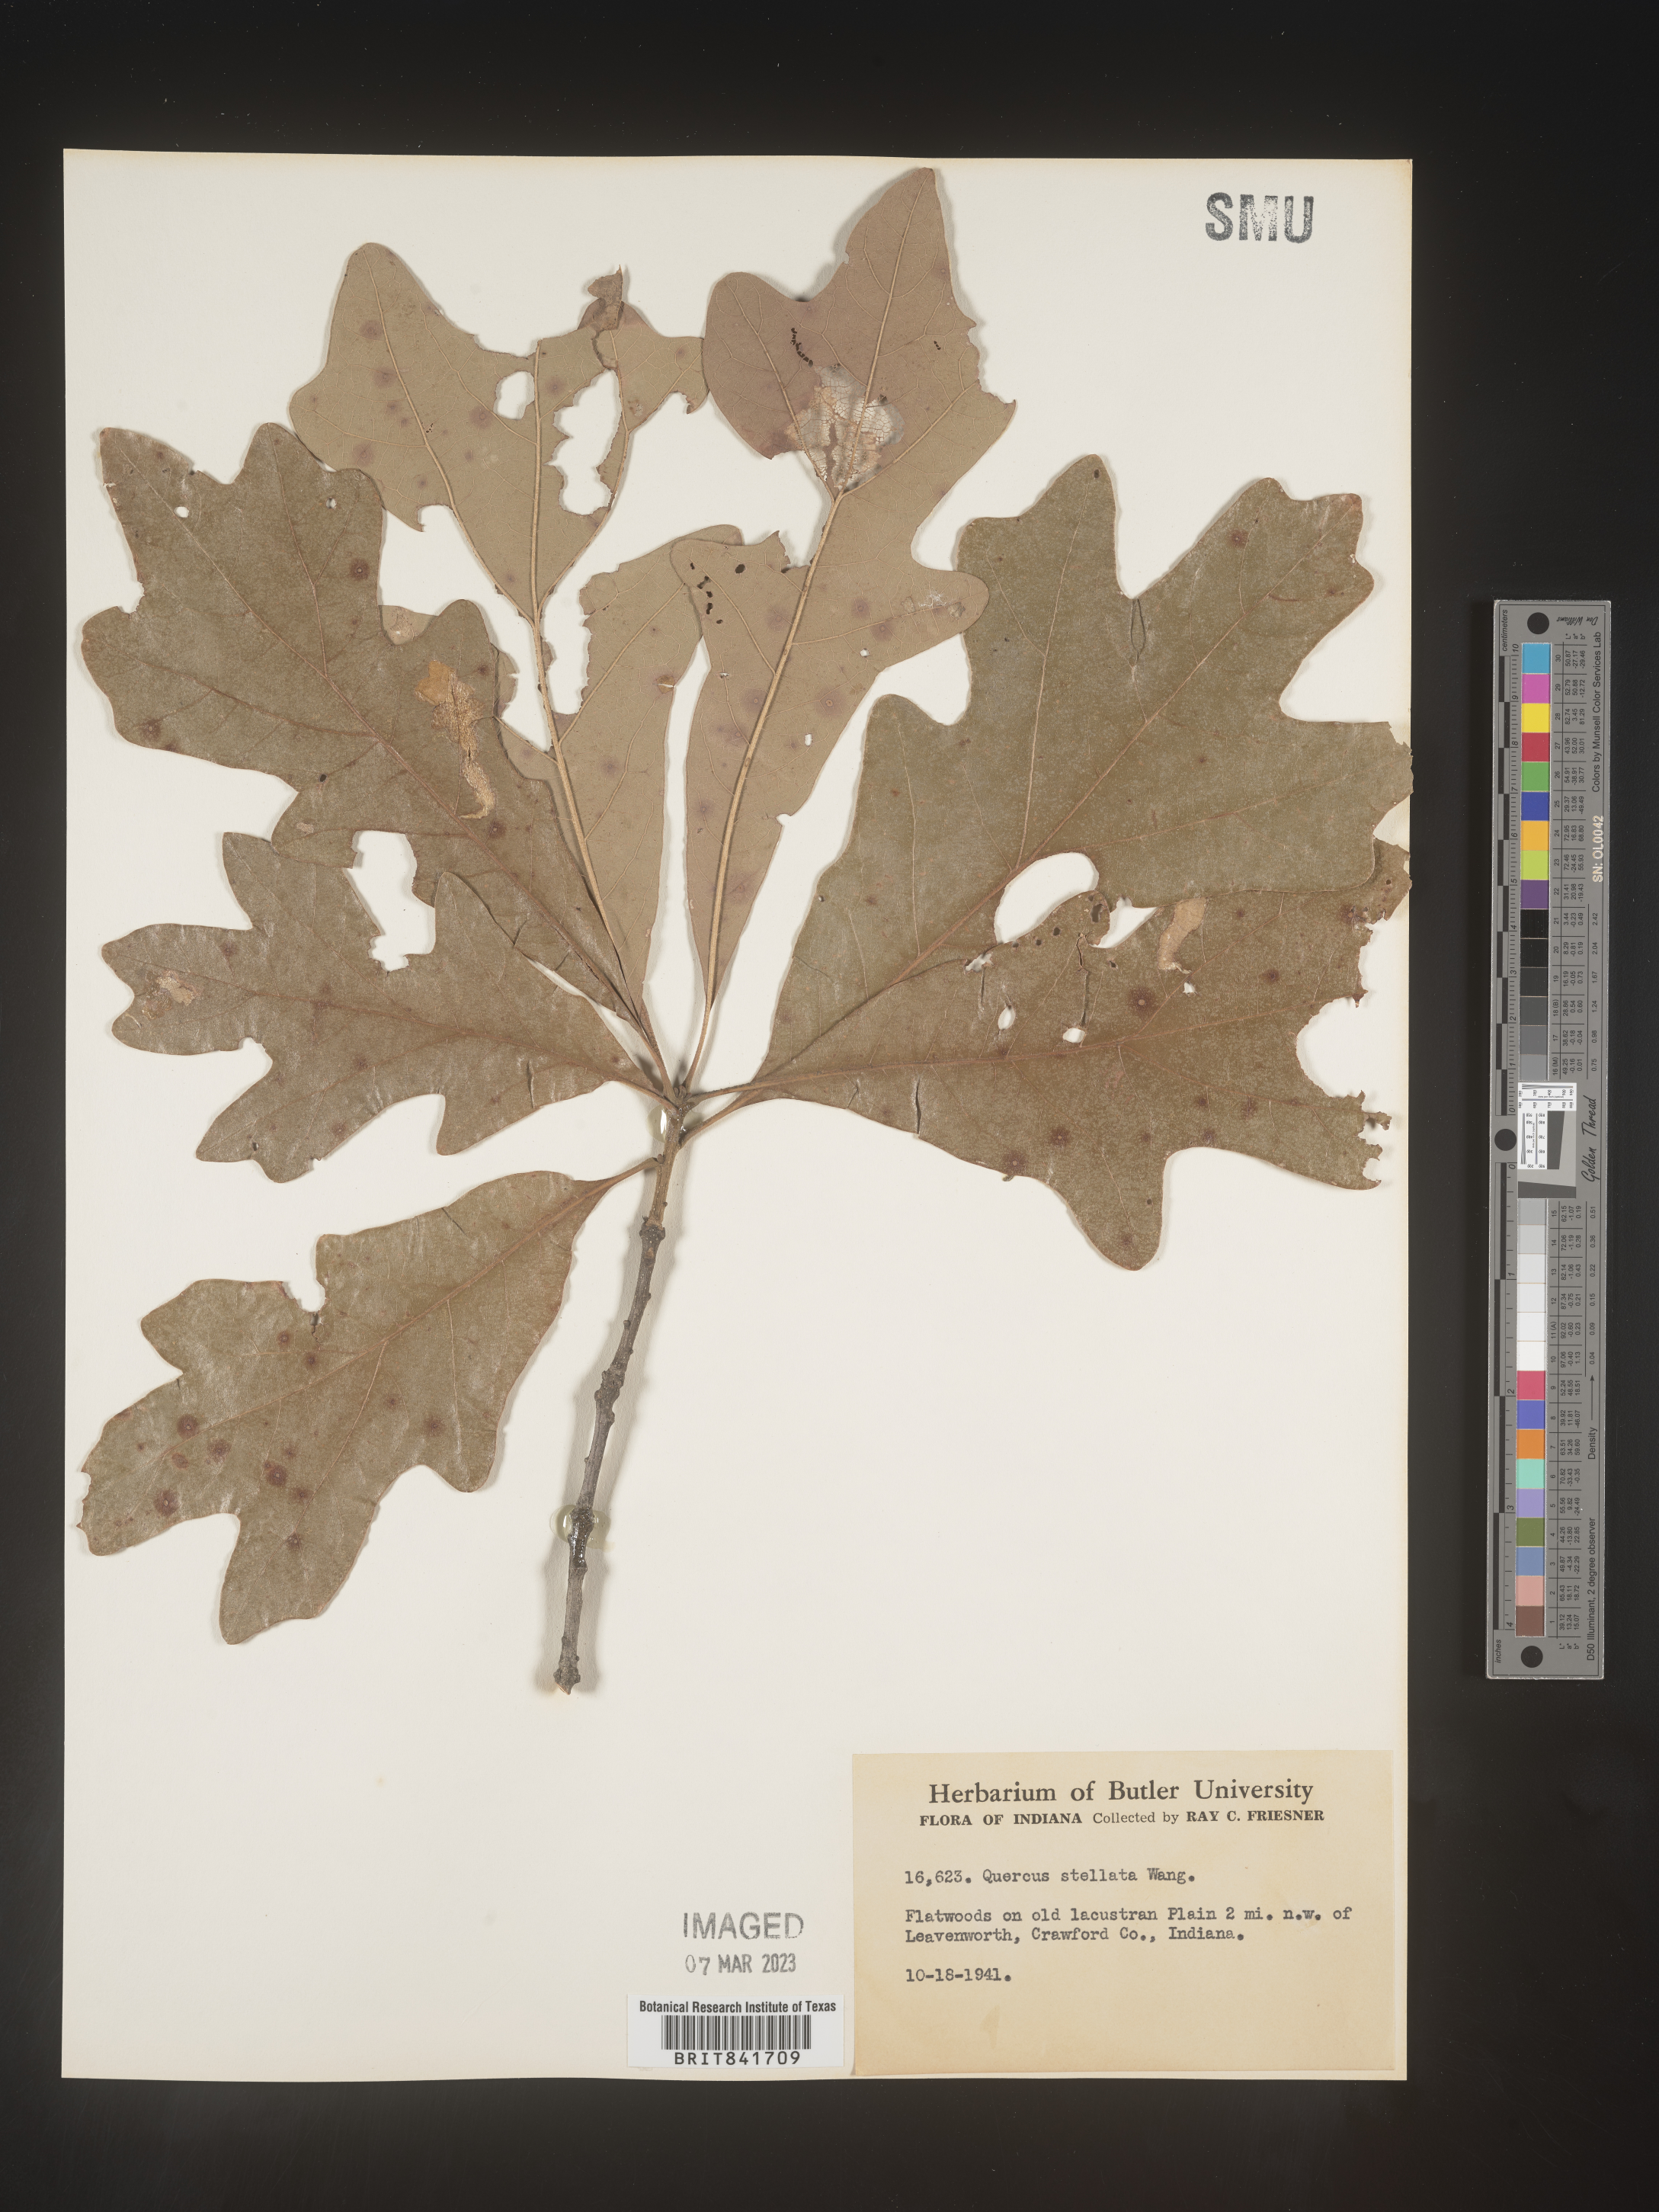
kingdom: Plantae
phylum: Tracheophyta
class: Magnoliopsida
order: Fagales
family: Fagaceae
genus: Quercus
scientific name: Quercus stellata
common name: Post oak
